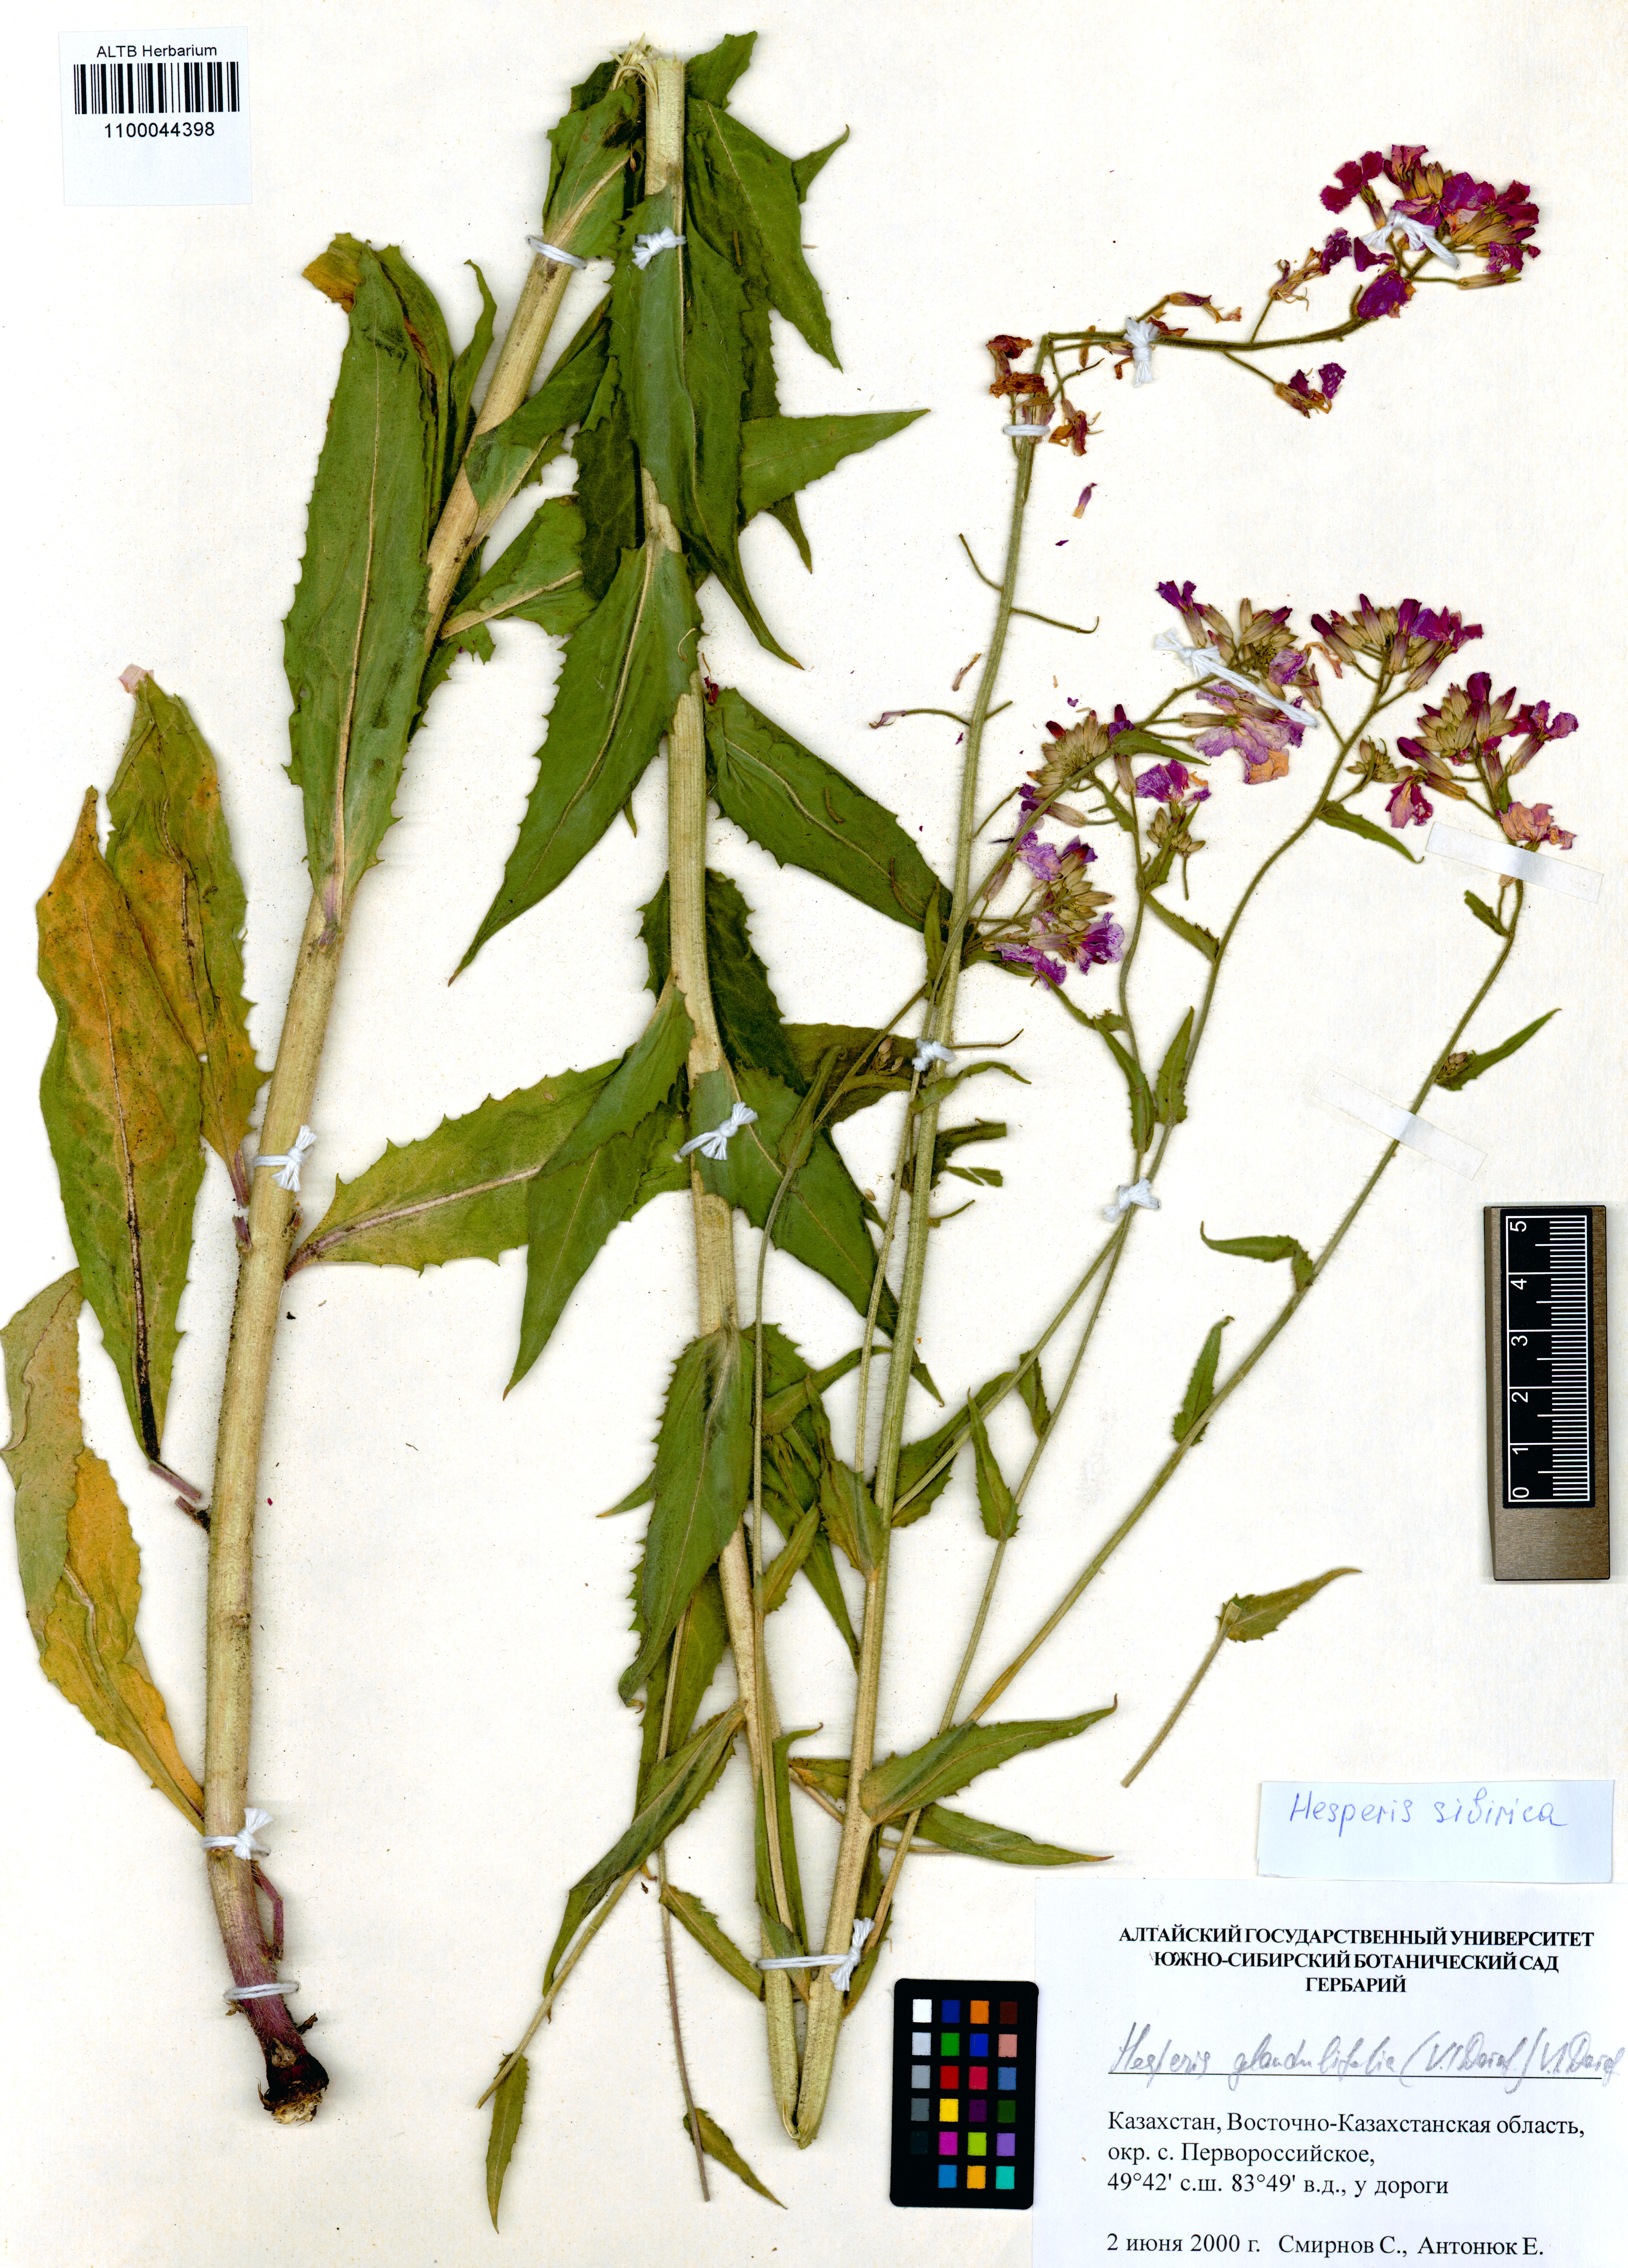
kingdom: Plantae
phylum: Tracheophyta
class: Magnoliopsida
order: Brassicales
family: Brassicaceae
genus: Hesperis
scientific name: Hesperis sibirica
